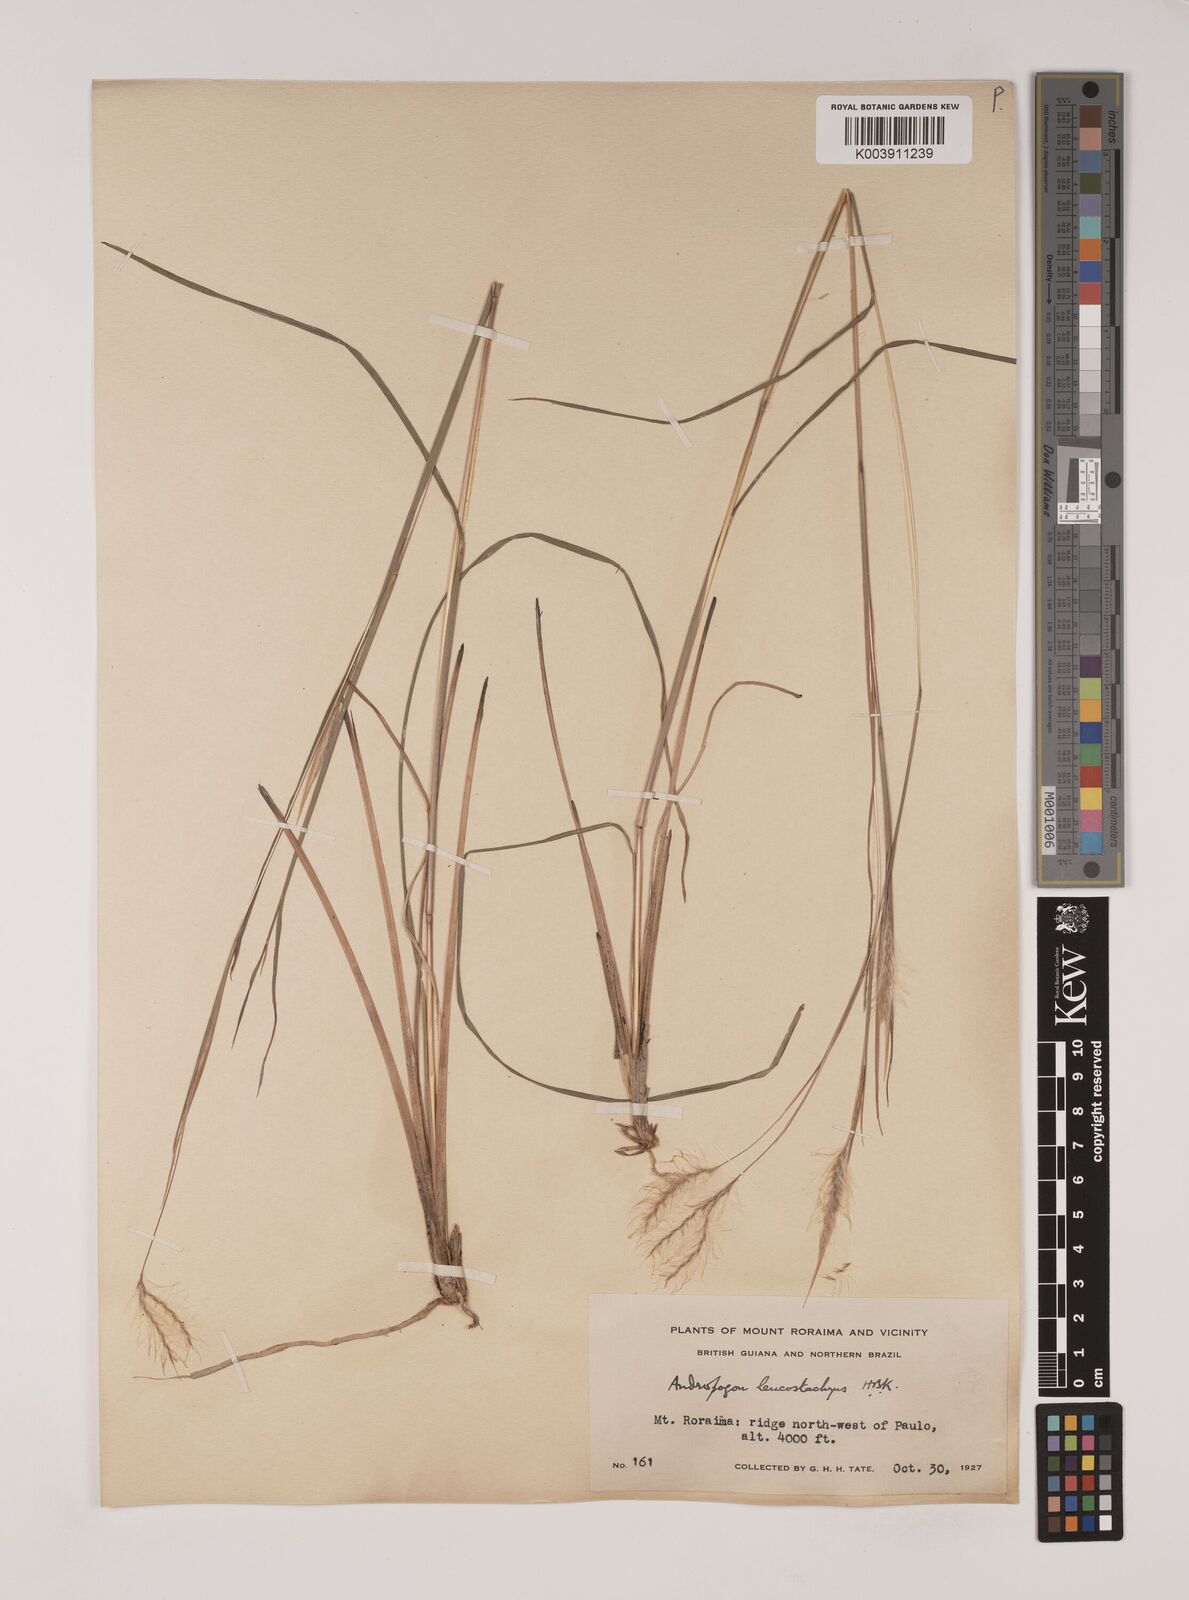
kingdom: Plantae
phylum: Tracheophyta
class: Liliopsida
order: Poales
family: Poaceae
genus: Andropogon
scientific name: Andropogon leucostachyus
